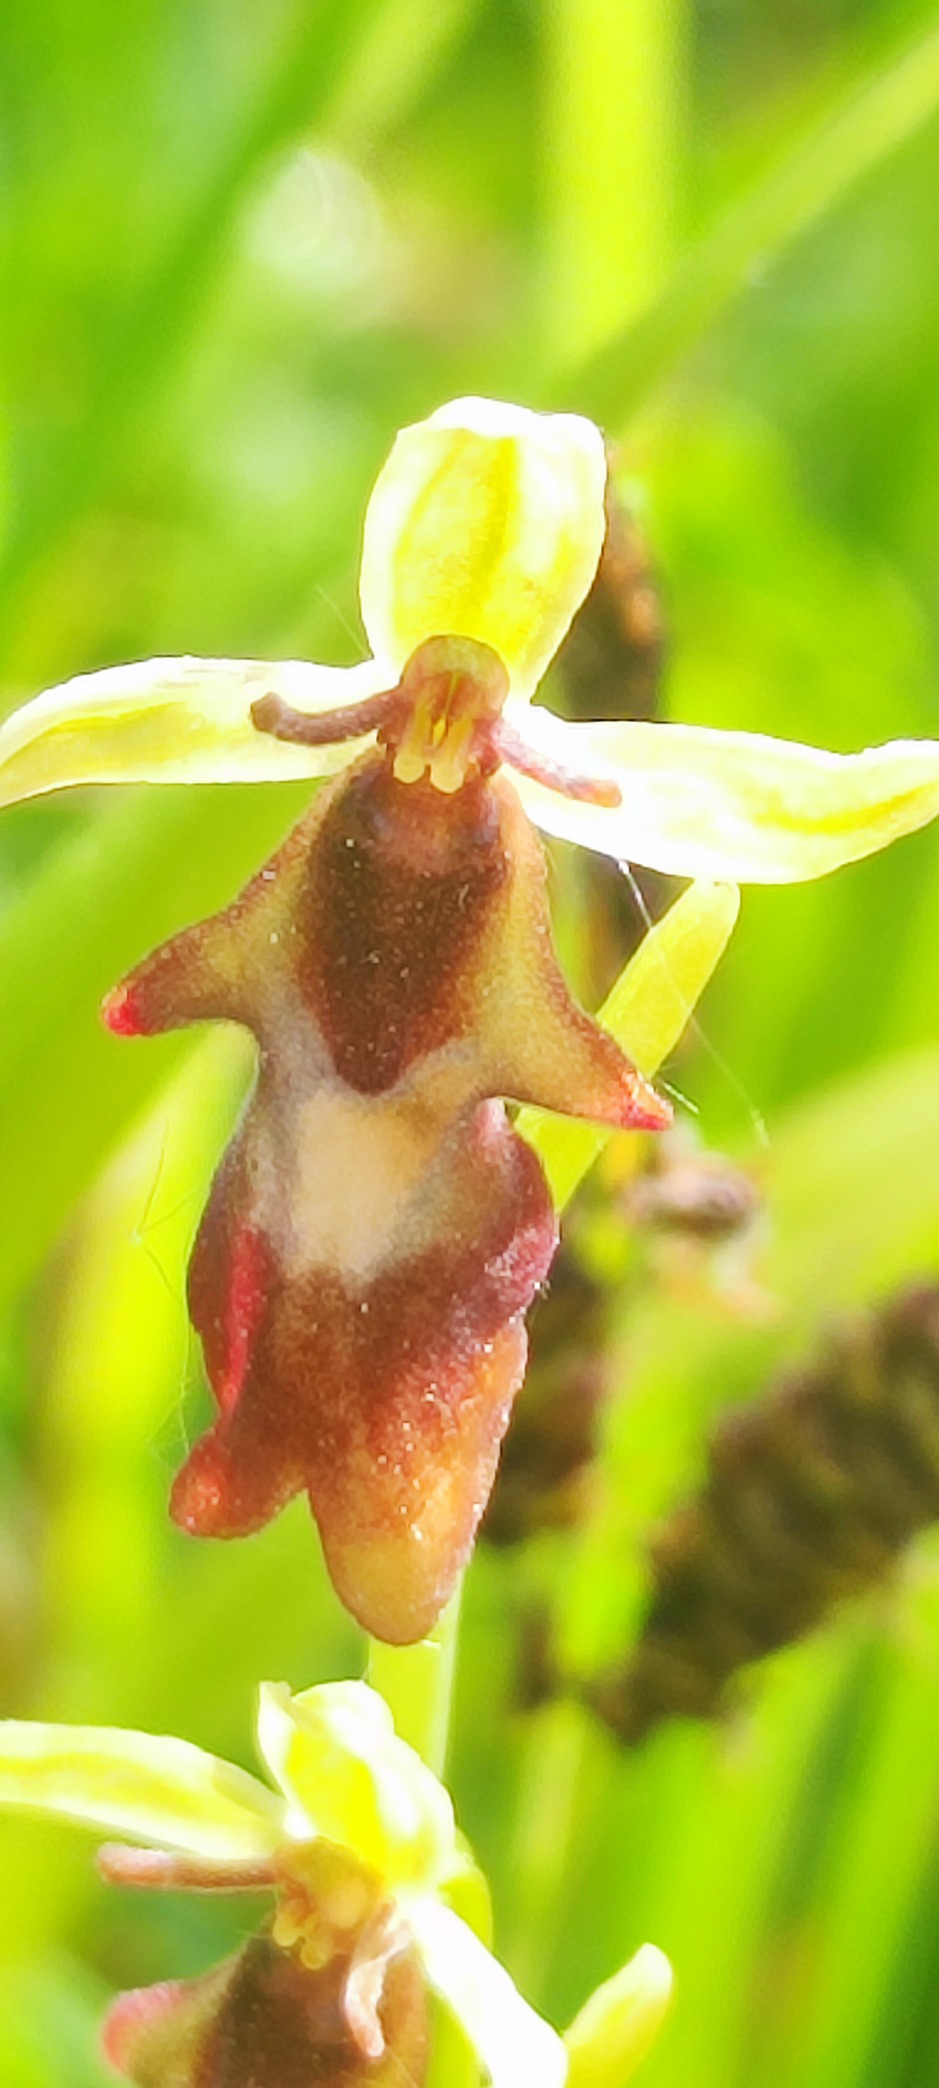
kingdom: Plantae
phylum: Tracheophyta
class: Liliopsida
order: Asparagales
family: Orchidaceae
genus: Ophrys
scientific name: Ophrys insectifera
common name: Flueblomst
